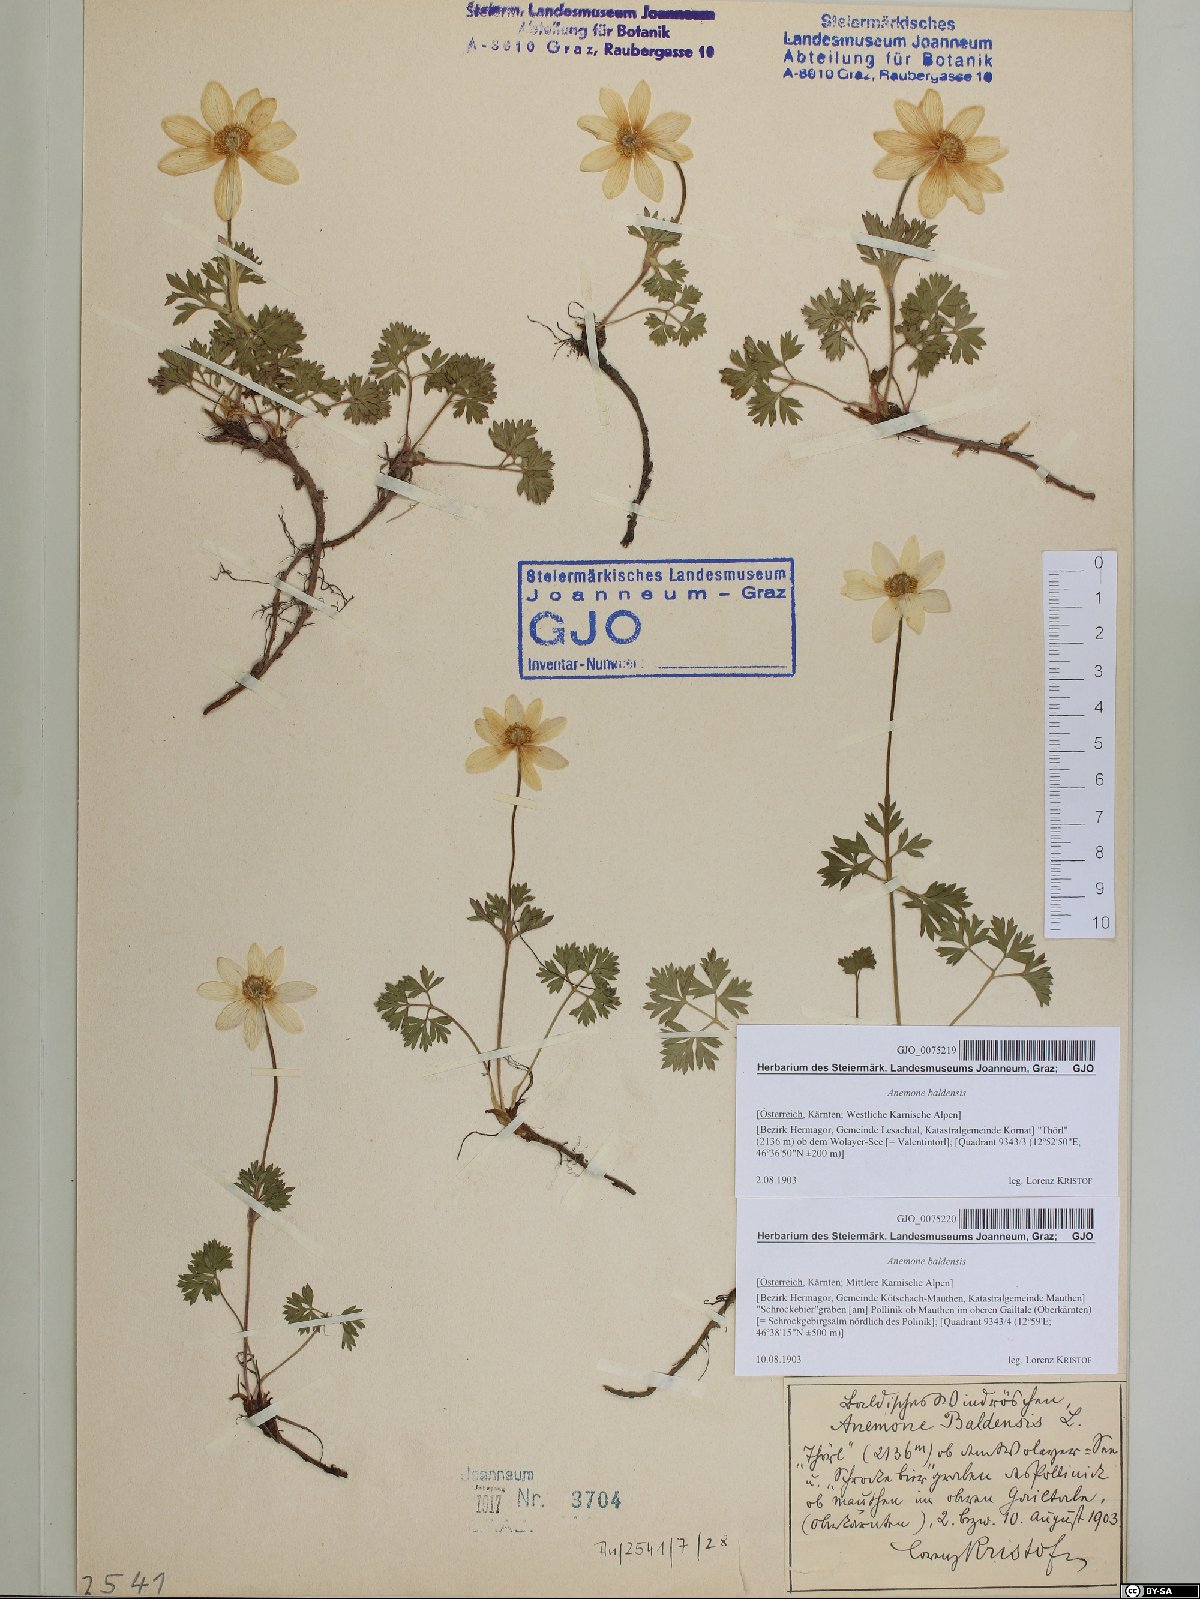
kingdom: Plantae
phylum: Tracheophyta
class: Magnoliopsida
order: Ranunculales
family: Ranunculaceae
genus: Anemone
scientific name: Anemone baldensis
